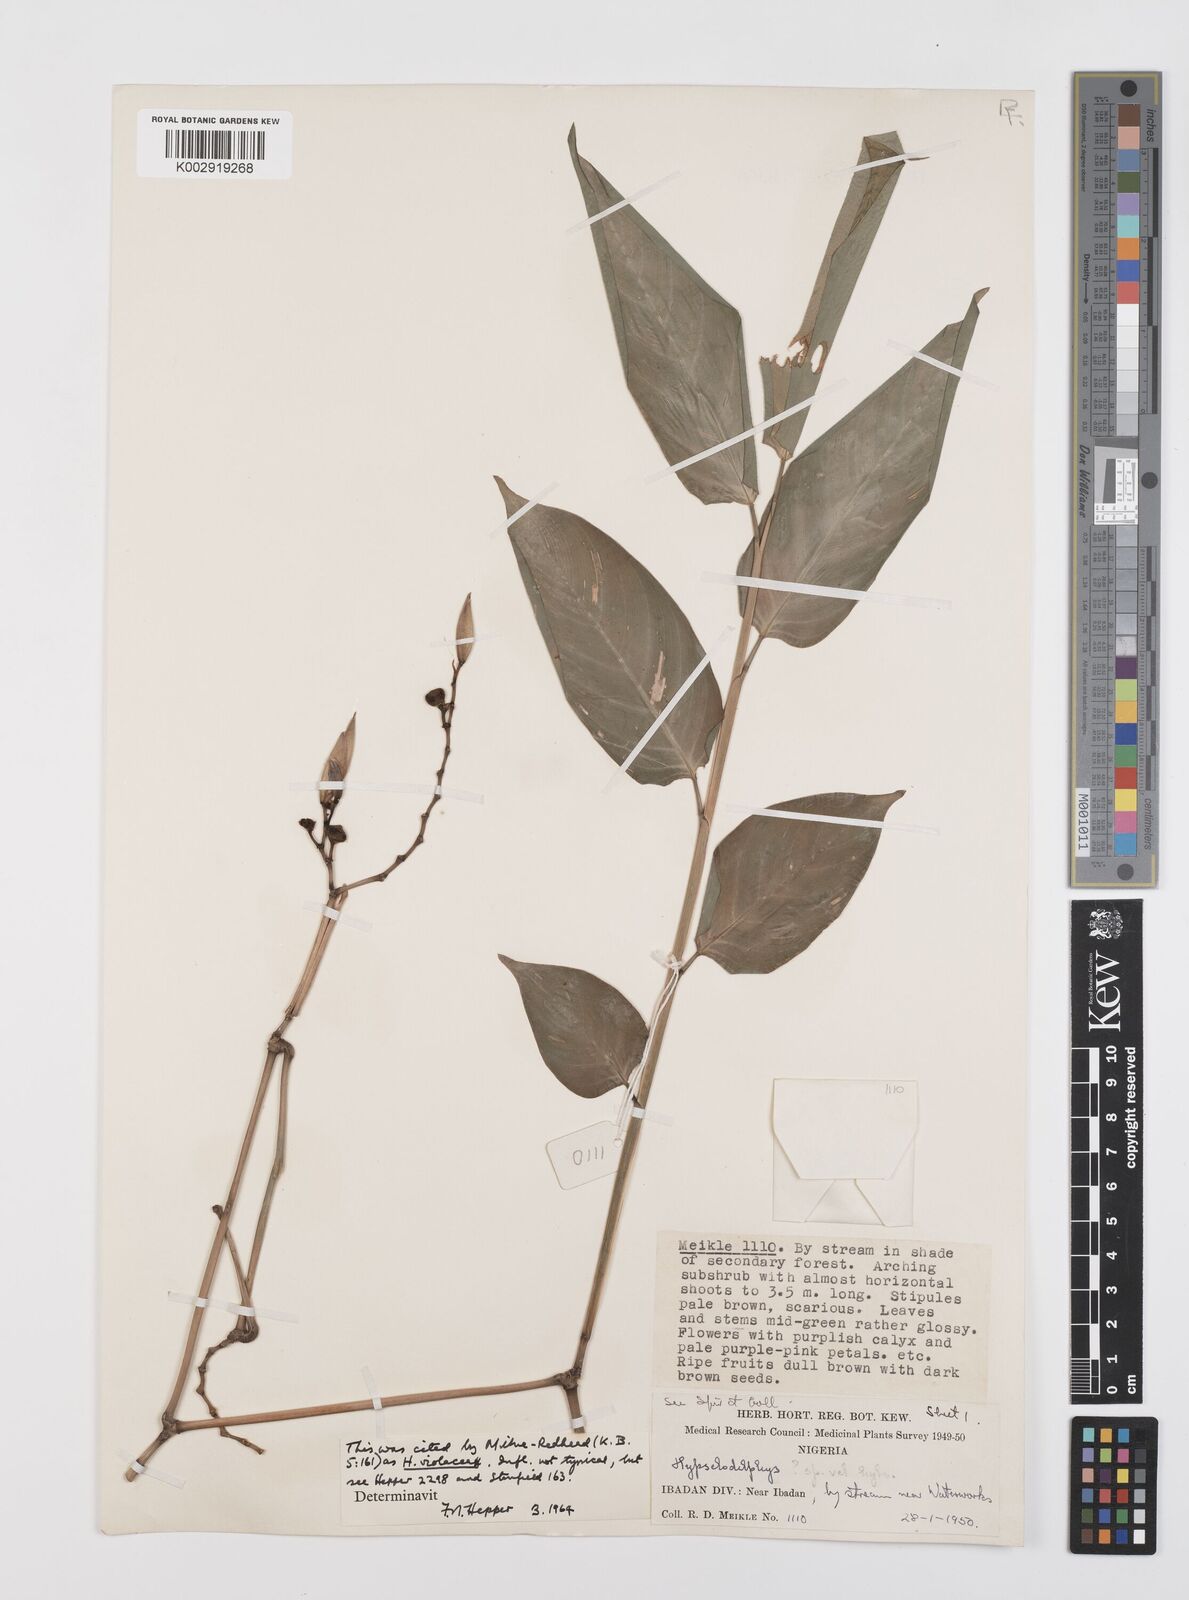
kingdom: Plantae
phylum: Tracheophyta
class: Liliopsida
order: Zingiberales
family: Marantaceae
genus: Hypselodelphys
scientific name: Hypselodelphys
